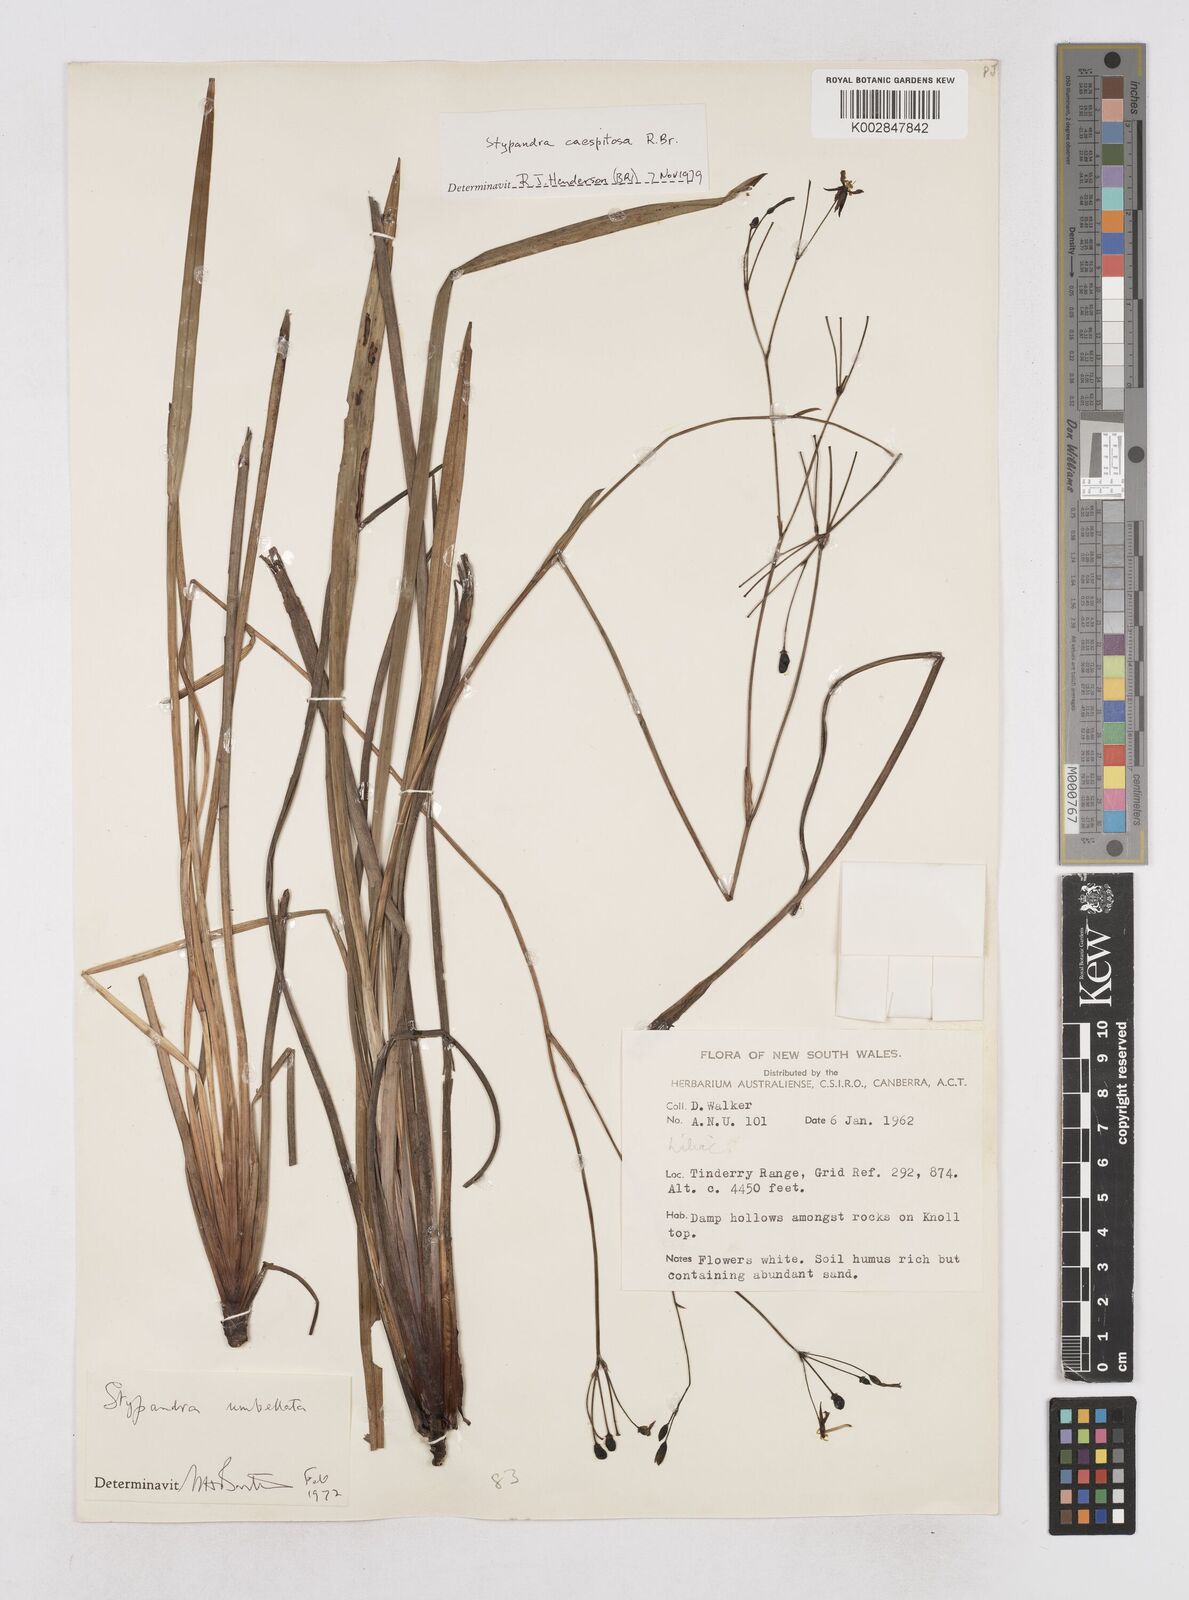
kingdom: Plantae
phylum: Tracheophyta
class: Liliopsida
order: Asparagales
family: Asphodelaceae
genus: Thelionema
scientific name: Thelionema caespitosum
